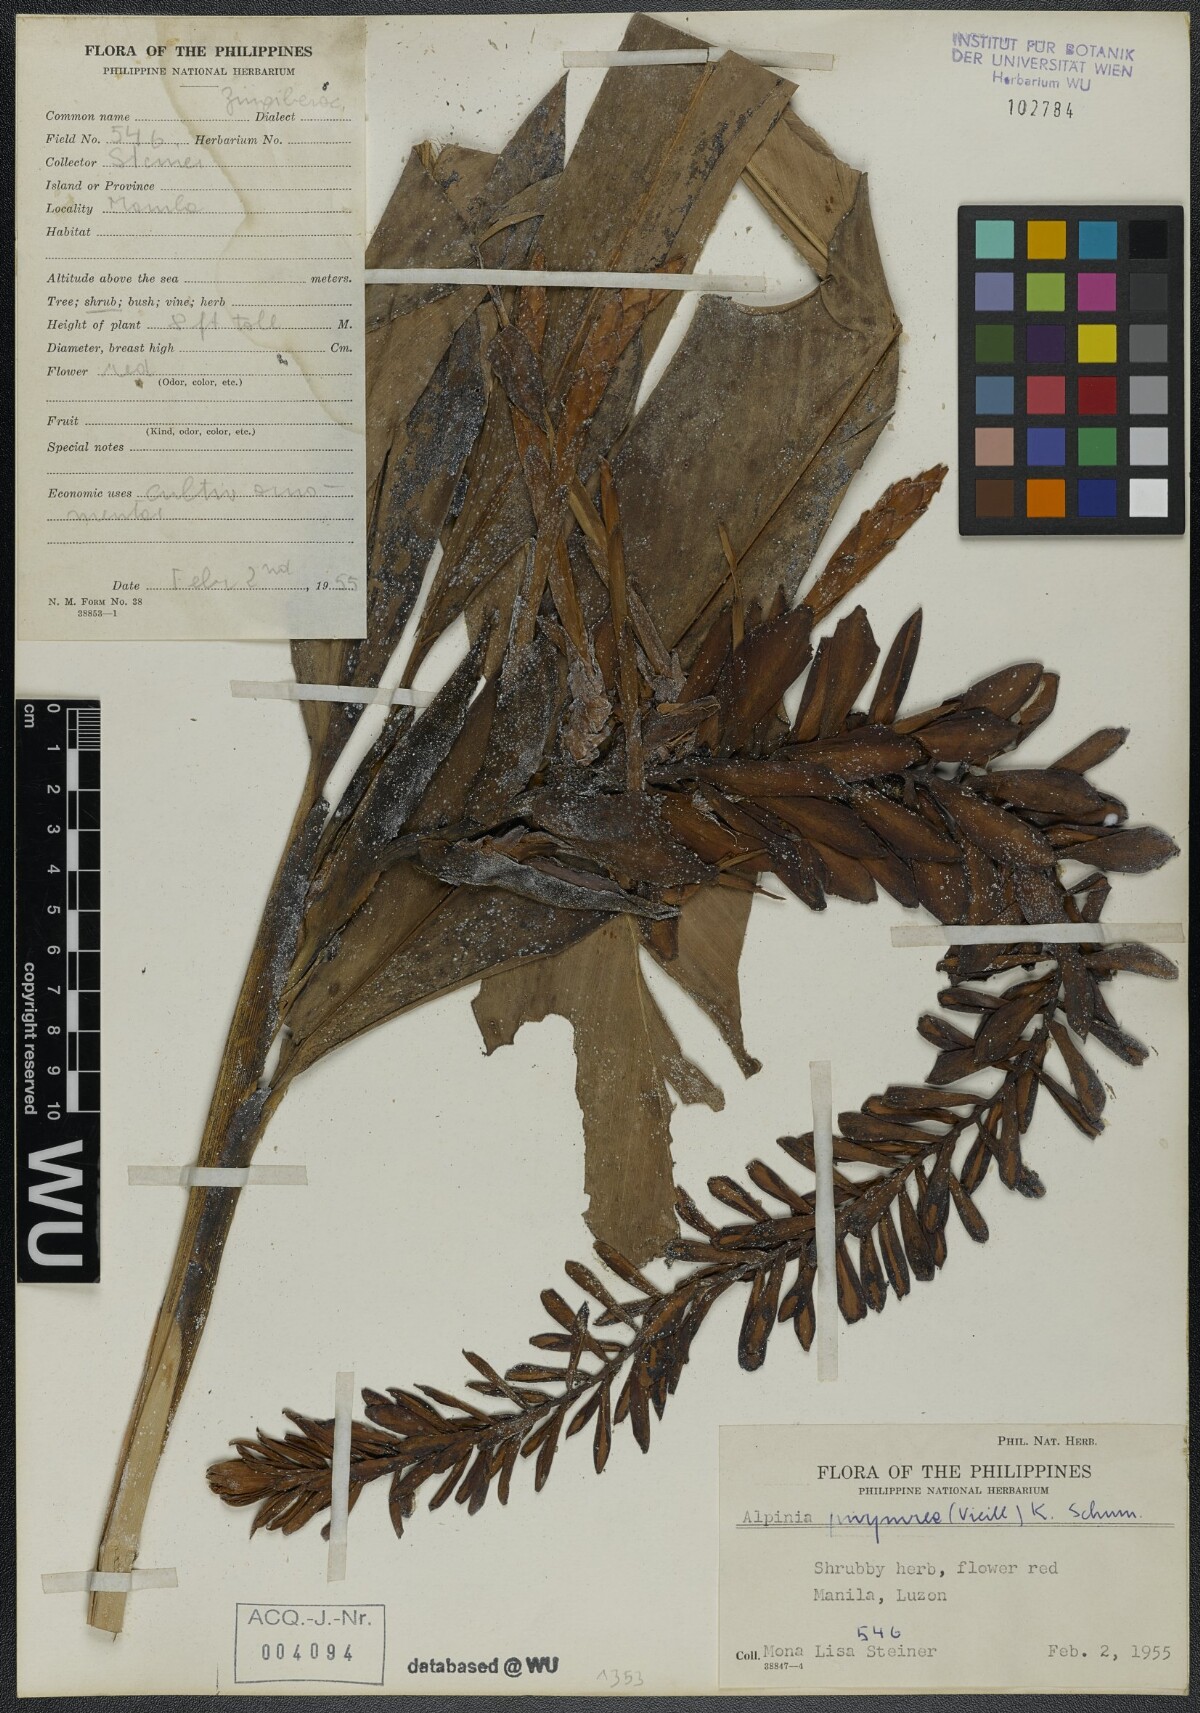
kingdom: Plantae
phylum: Tracheophyta
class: Liliopsida
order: Zingiberales
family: Zingiberaceae
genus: Alpinia
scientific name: Alpinia purpurata
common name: Red ginger
